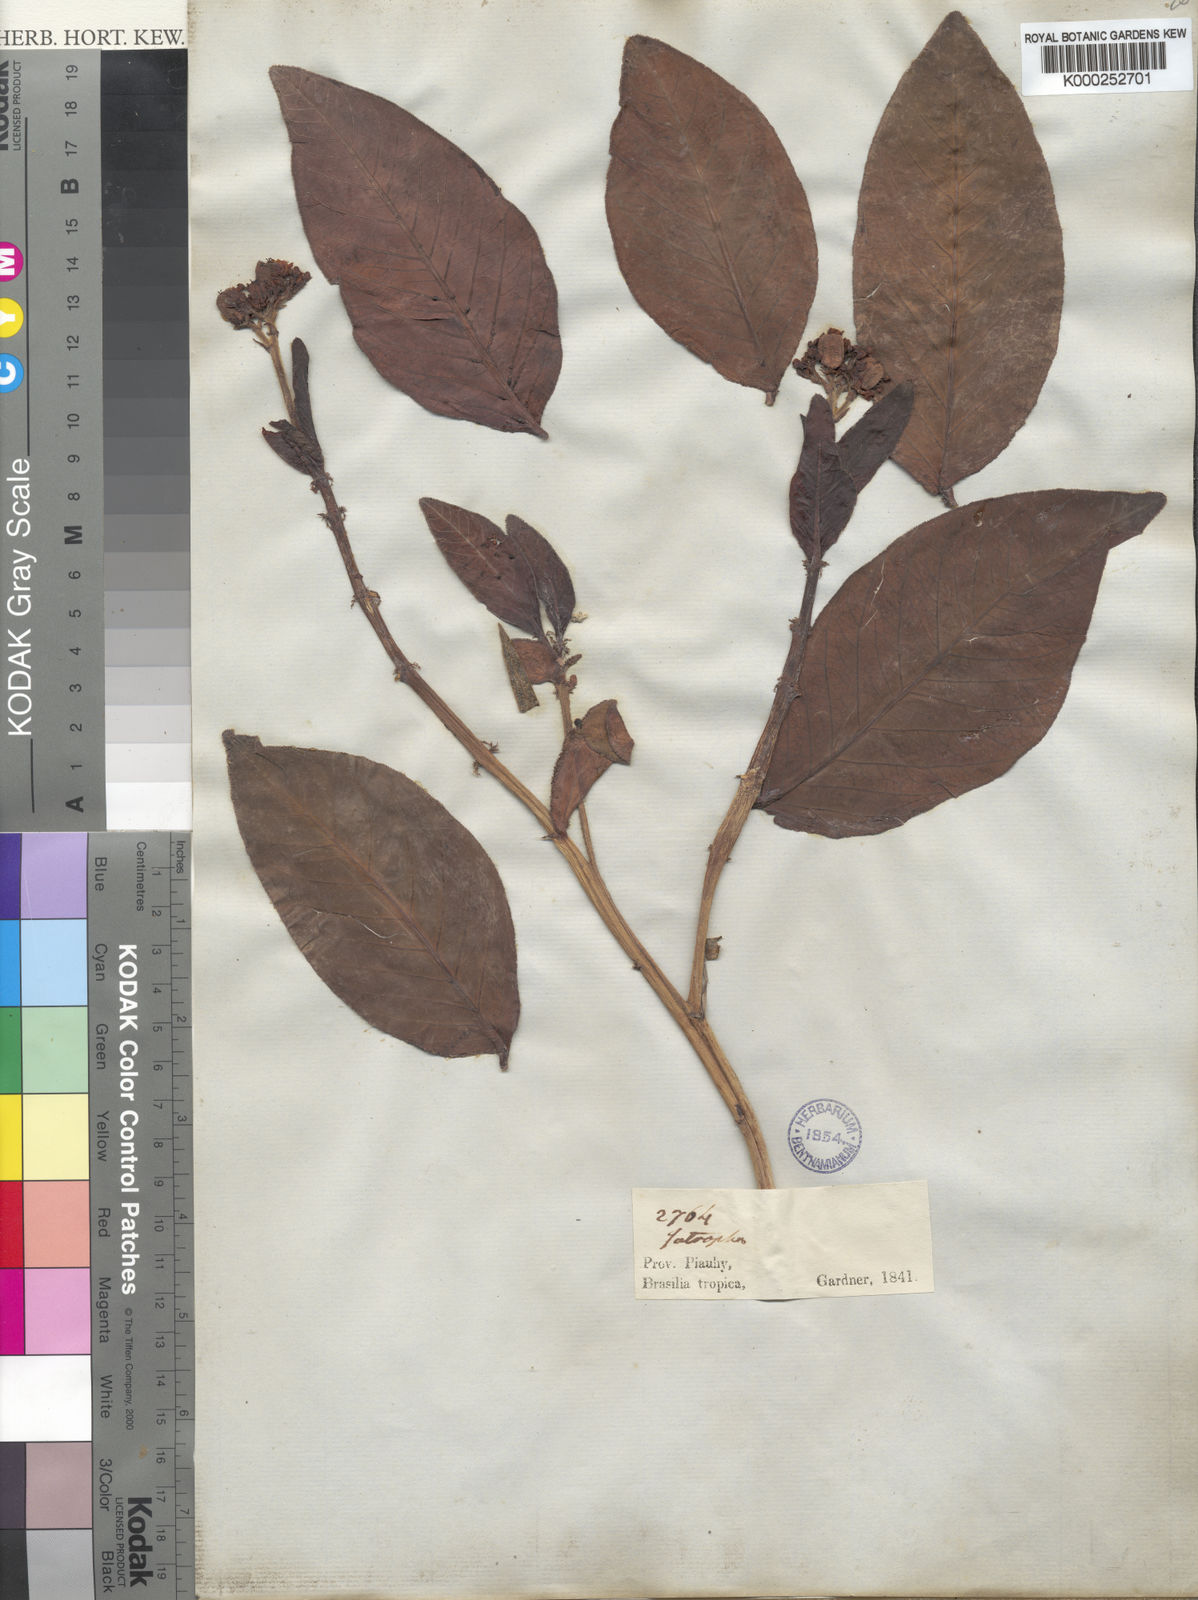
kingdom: Plantae
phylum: Tracheophyta
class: Magnoliopsida
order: Malpighiales
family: Euphorbiaceae
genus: Jatropha
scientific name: Jatropha elliptica
